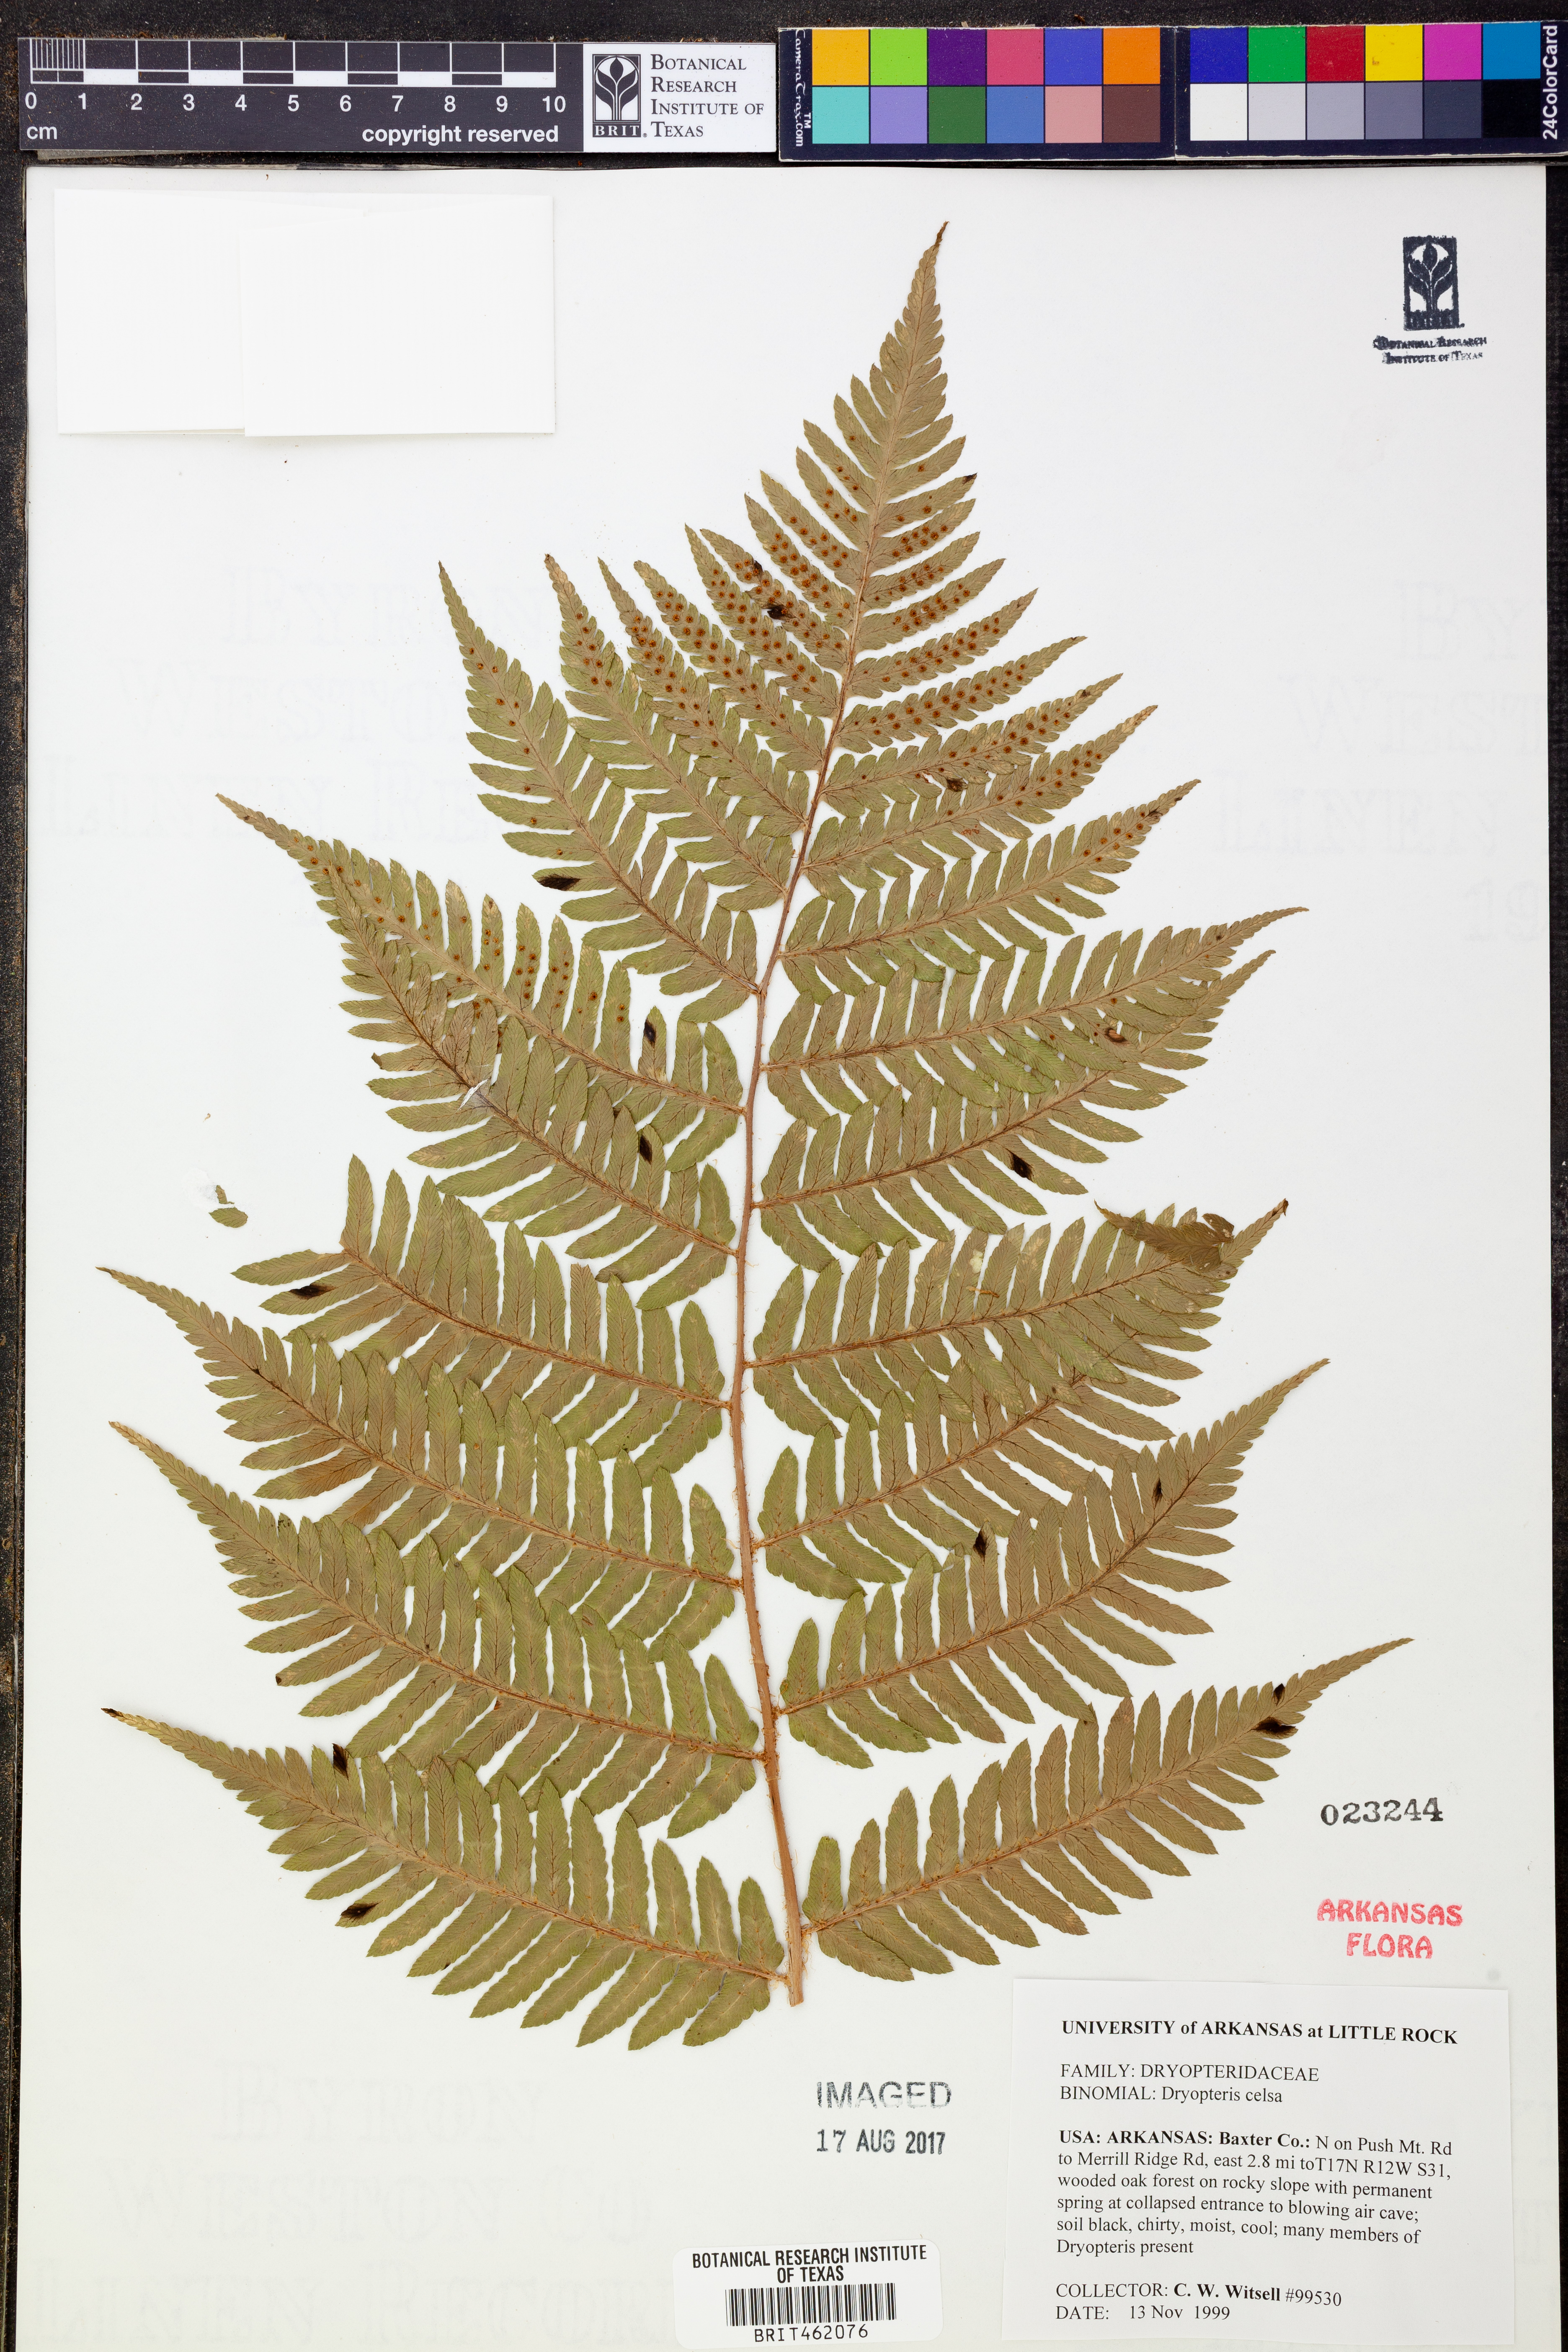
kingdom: Plantae
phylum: Tracheophyta
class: Polypodiopsida
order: Polypodiales
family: Dryopteridaceae
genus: Dryopteris
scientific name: Dryopteris celsa
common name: Log fern
